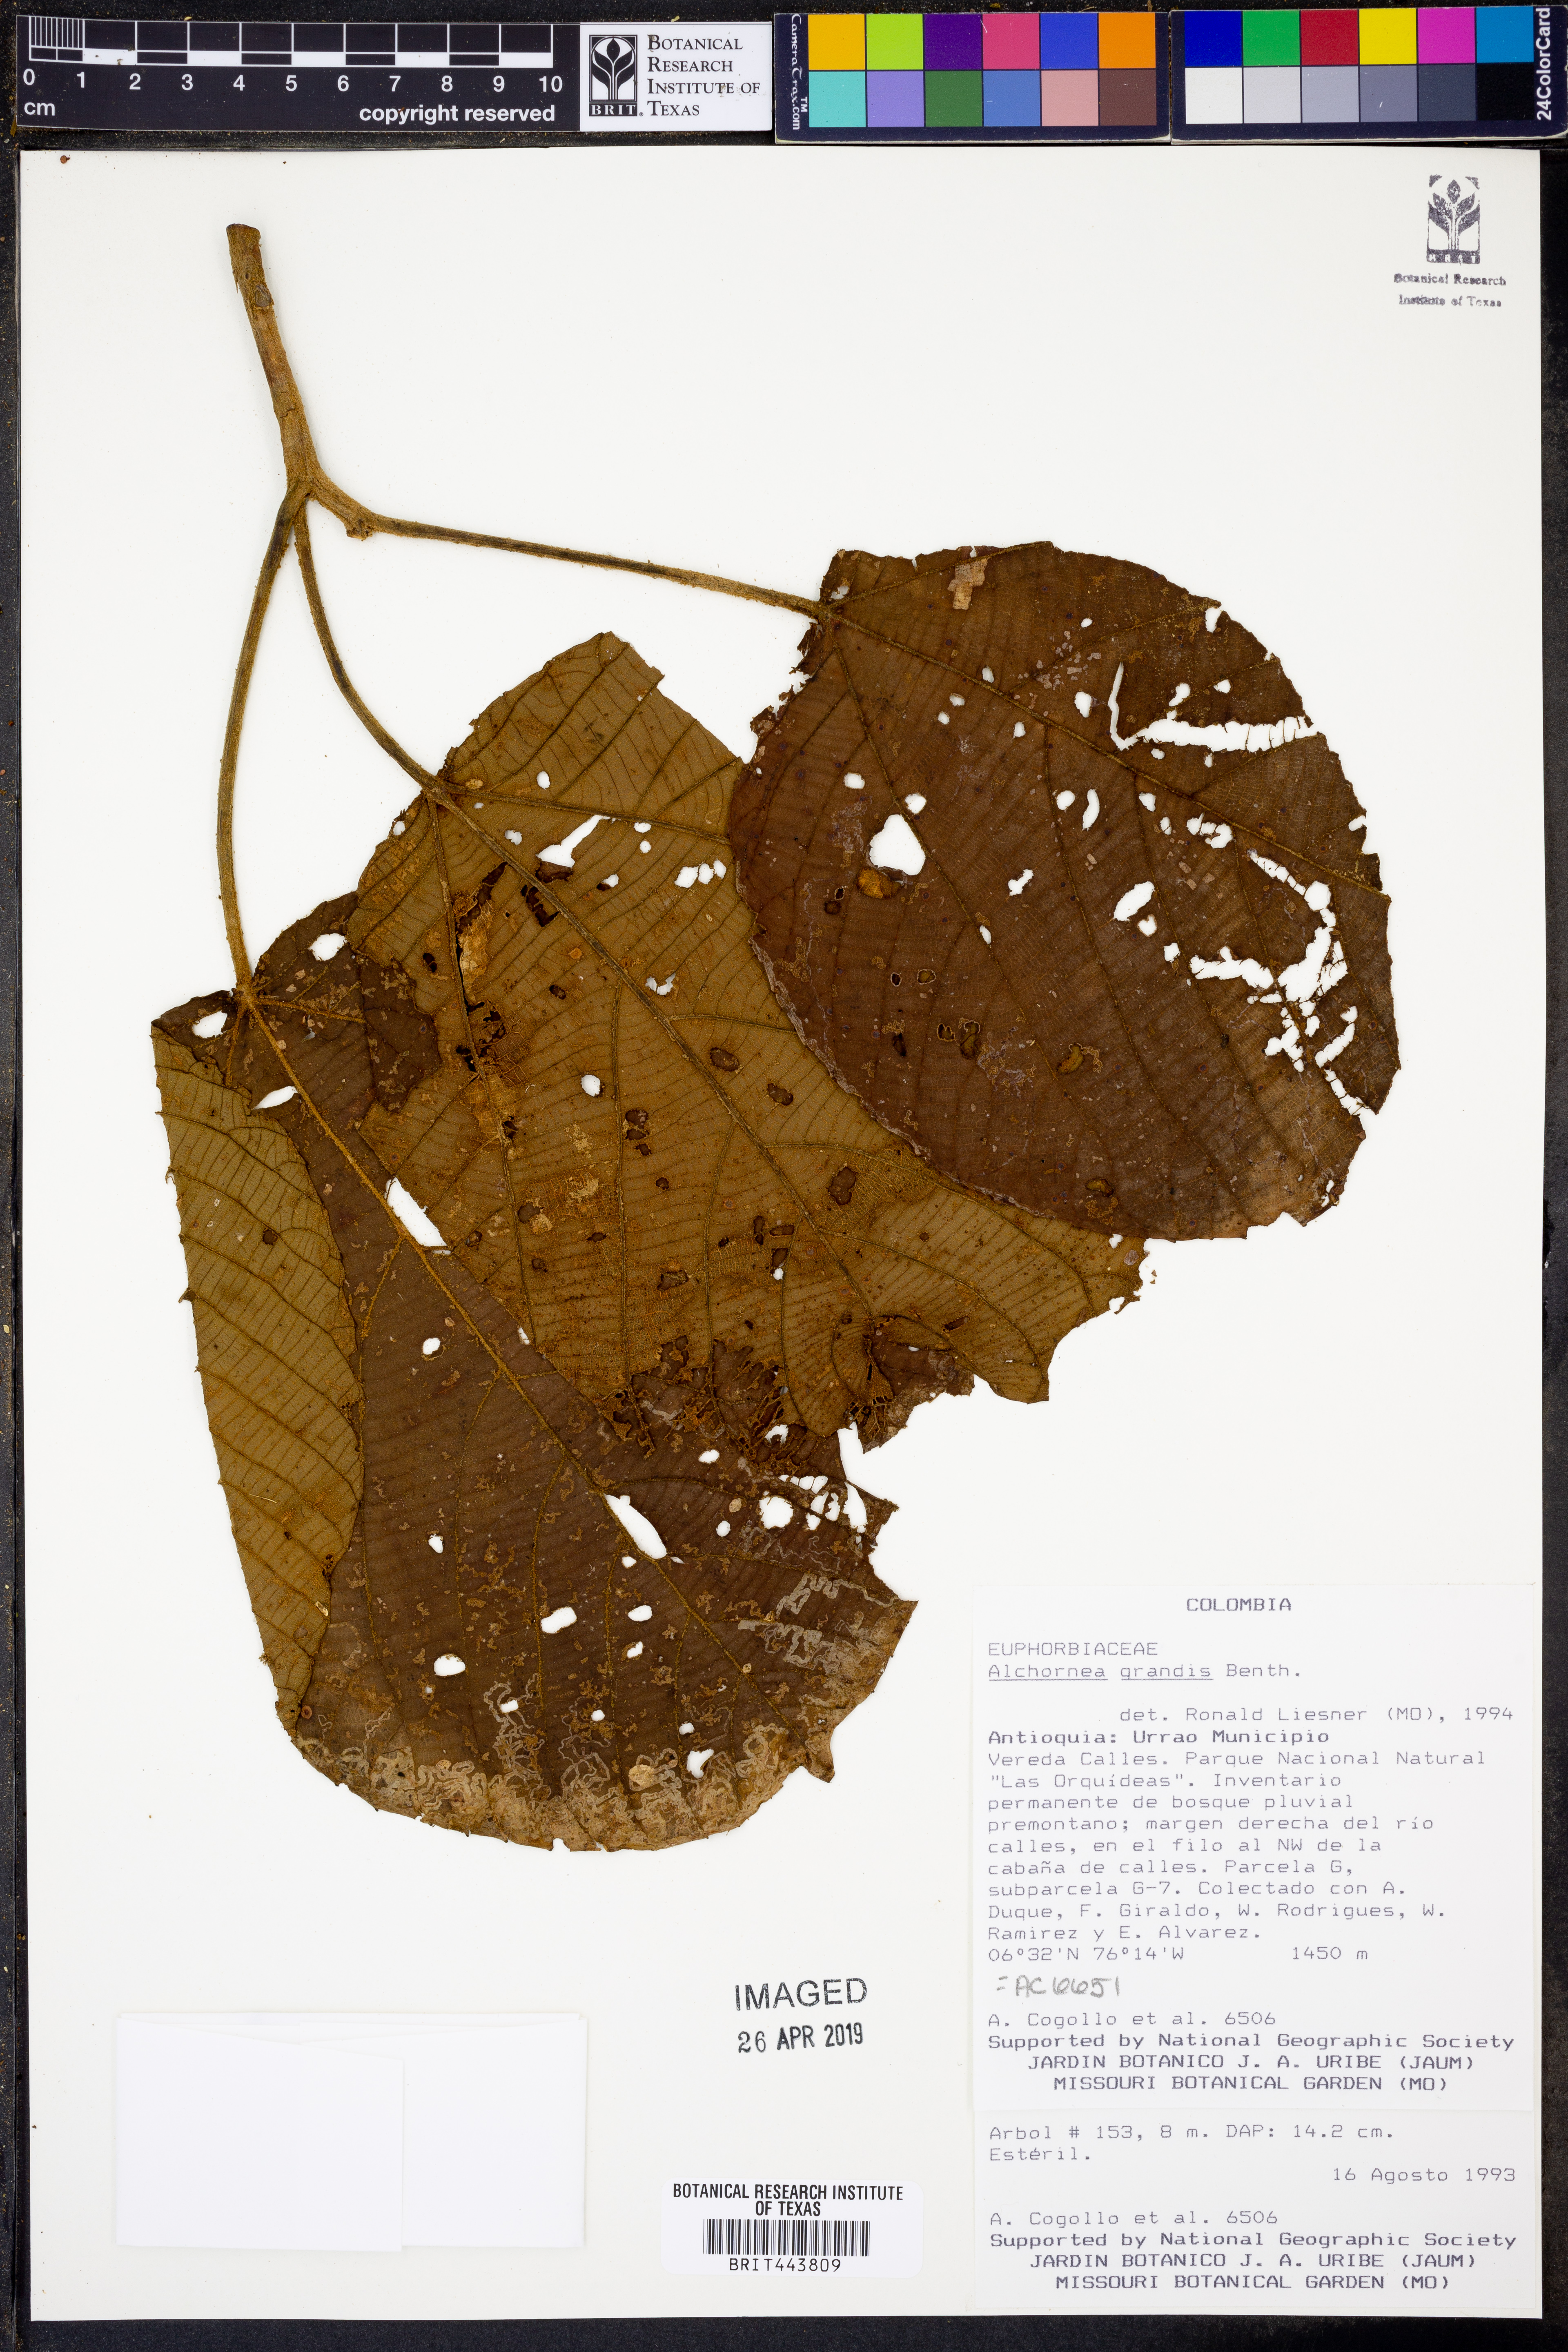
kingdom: Plantae
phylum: Tracheophyta
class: Magnoliopsida
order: Malpighiales
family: Euphorbiaceae
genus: Alchornea
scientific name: Alchornea grandis
